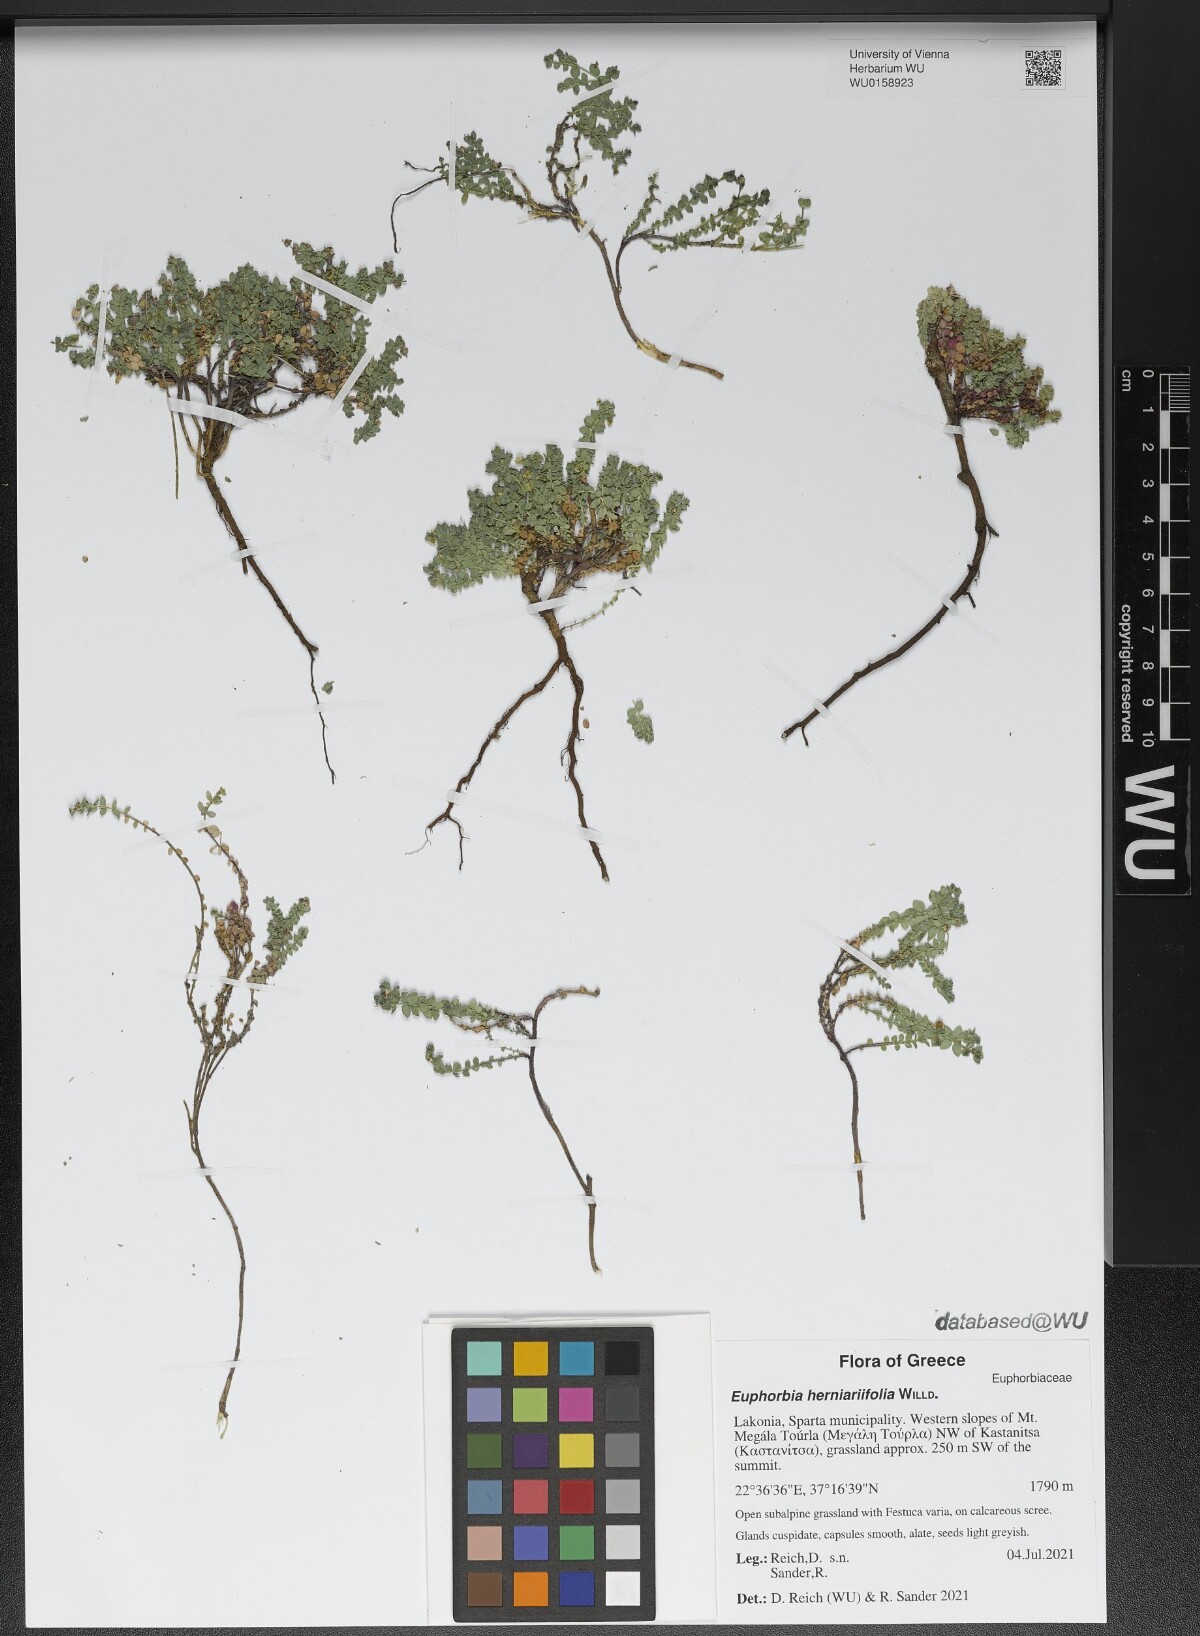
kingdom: Plantae
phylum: Tracheophyta
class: Magnoliopsida
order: Malpighiales
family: Euphorbiaceae
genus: Euphorbia
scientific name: Euphorbia herniariifolia
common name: Herniaria-leaf spurge
